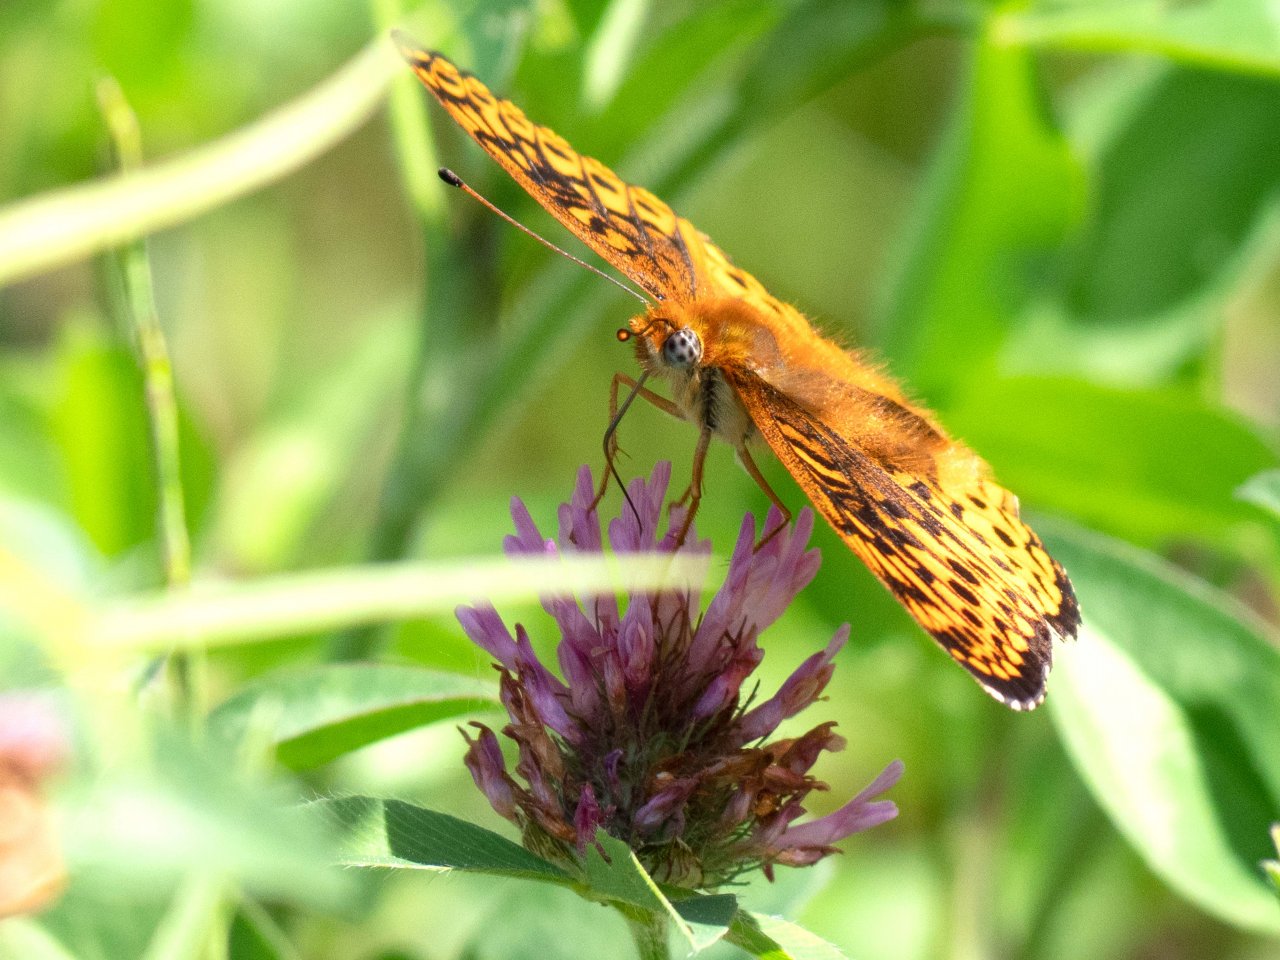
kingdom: Animalia
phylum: Arthropoda
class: Insecta
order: Lepidoptera
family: Nymphalidae
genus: Speyeria
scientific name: Speyeria atlantis
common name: Atlantis Fritillary
